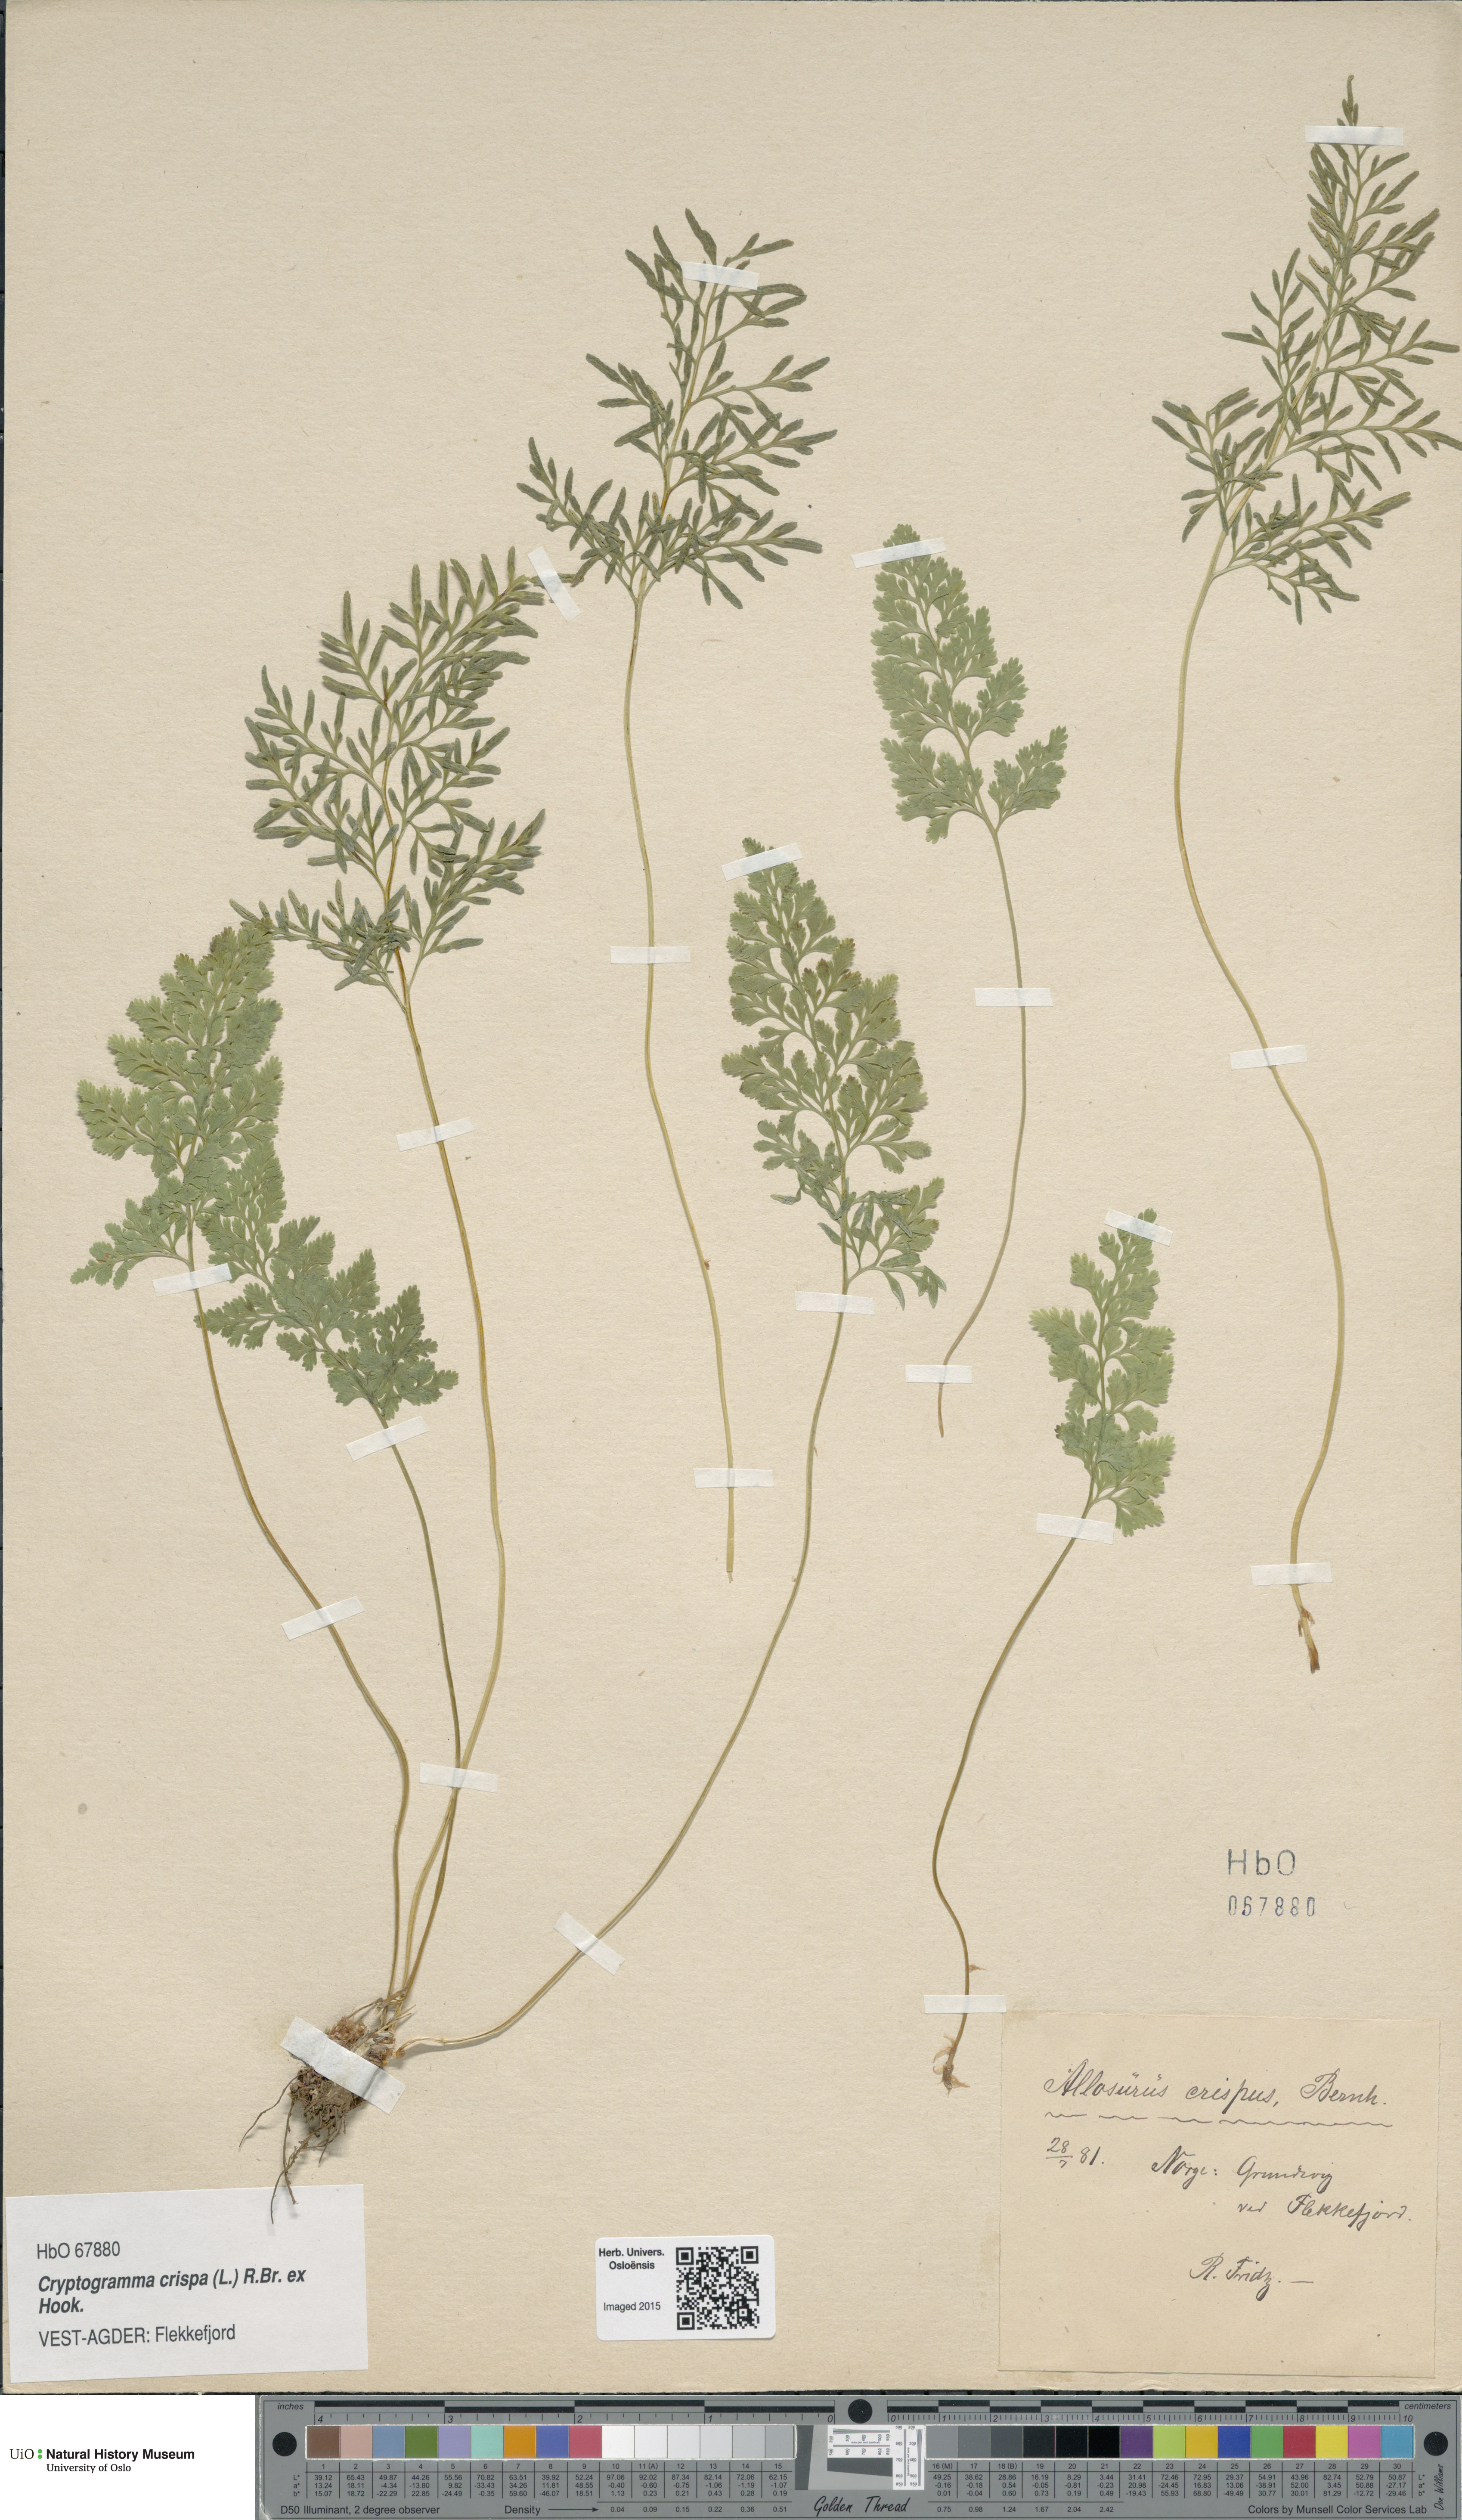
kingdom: Plantae
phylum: Tracheophyta
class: Polypodiopsida
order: Polypodiales
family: Pteridaceae
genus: Cryptogramma
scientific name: Cryptogramma crispa
